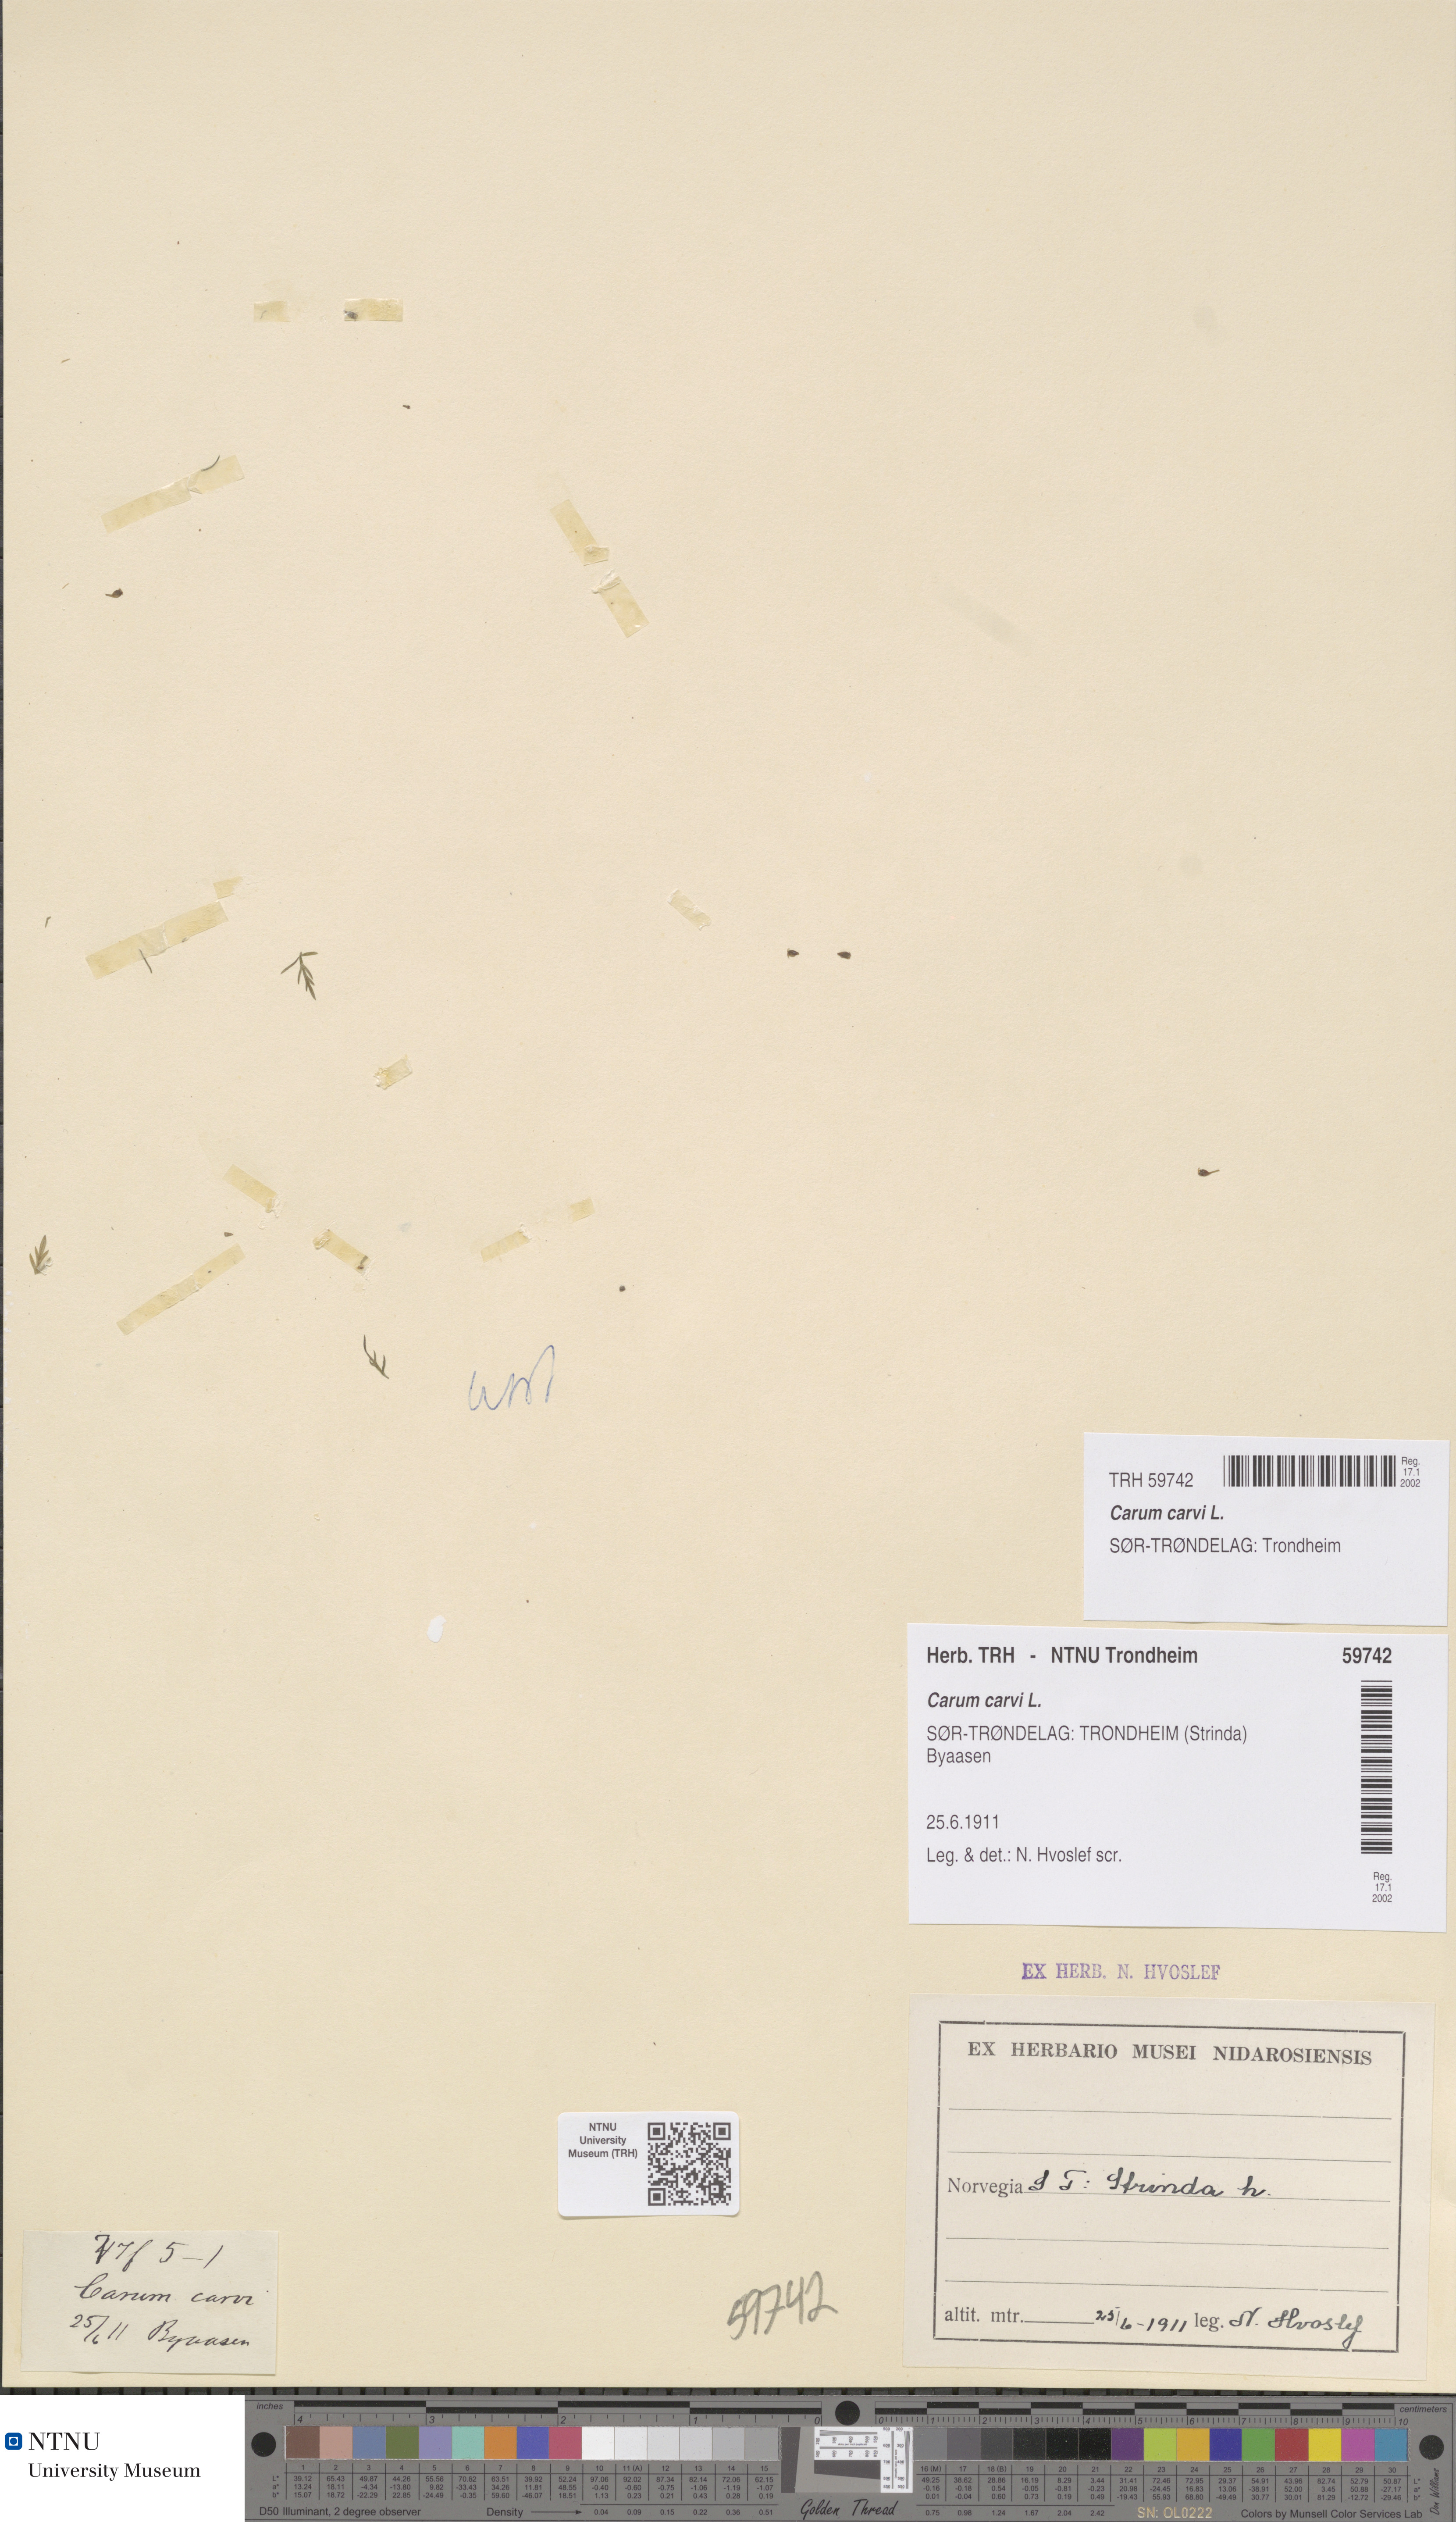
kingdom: Plantae
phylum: Tracheophyta
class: Magnoliopsida
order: Apiales
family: Apiaceae
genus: Carum
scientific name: Carum carvi
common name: Caraway
